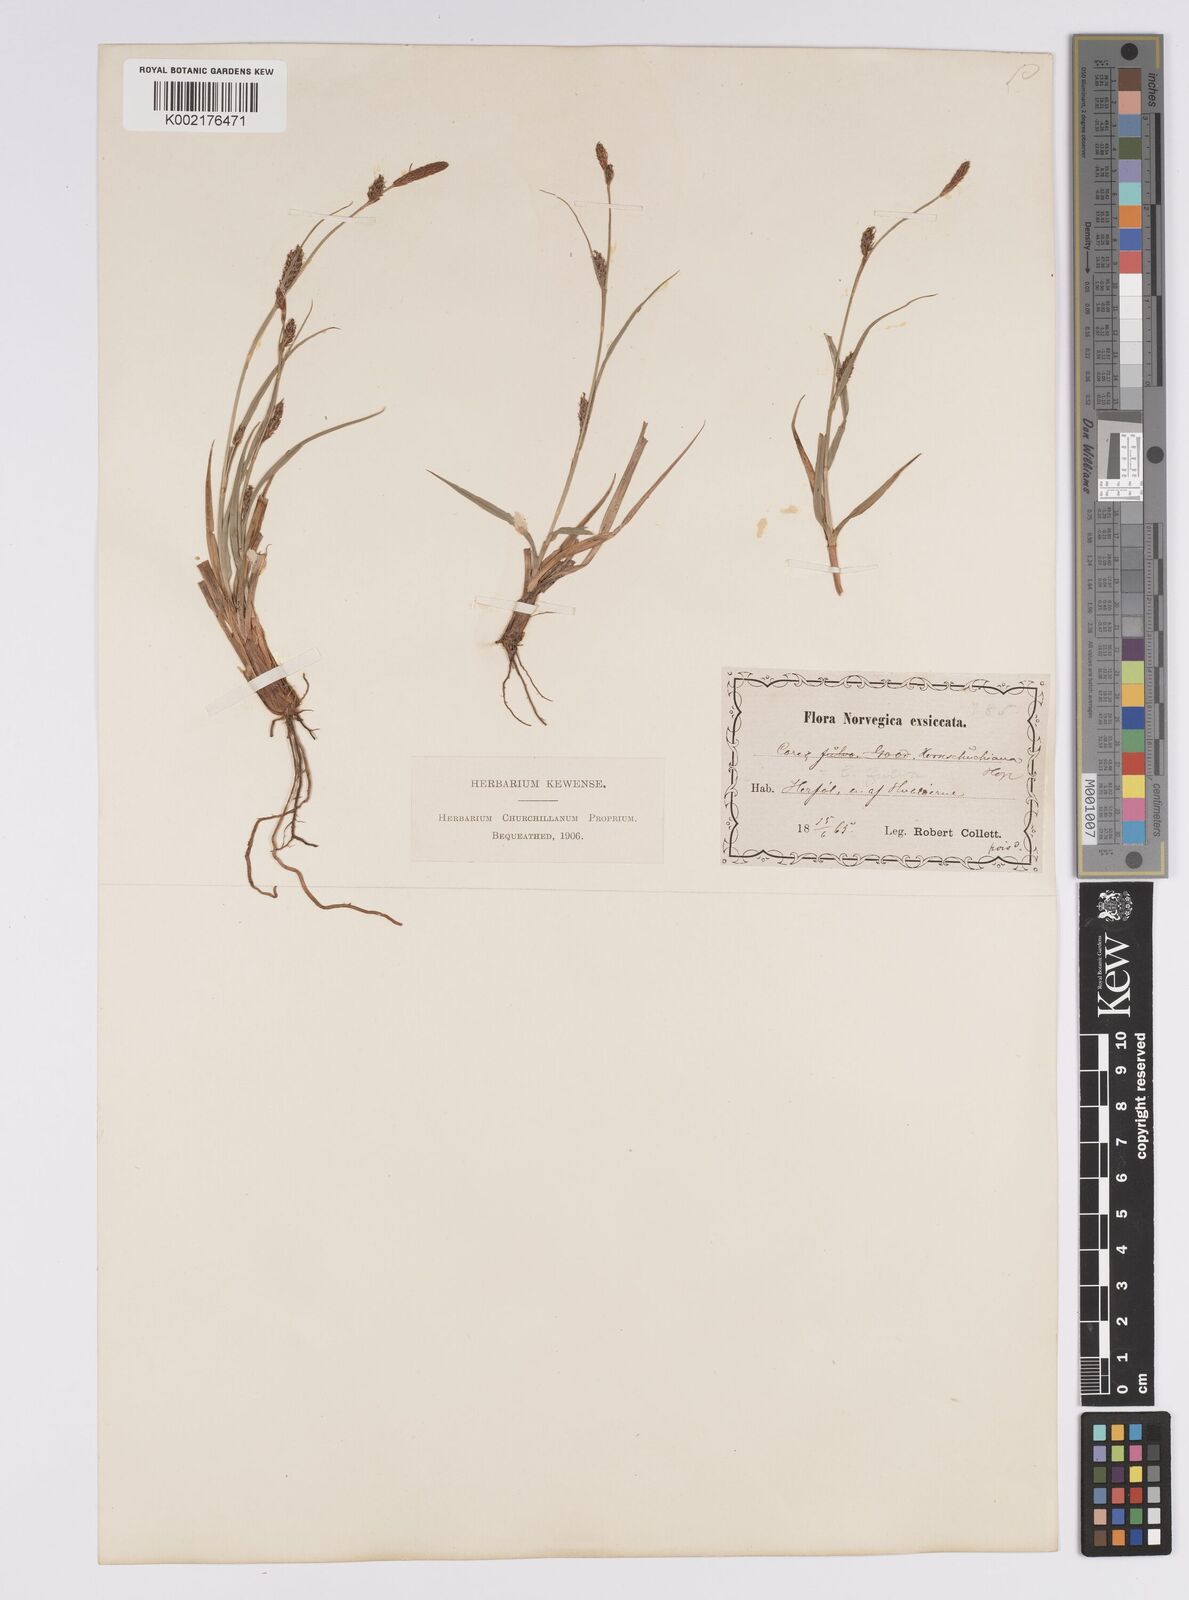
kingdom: Plantae
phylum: Tracheophyta
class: Liliopsida
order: Poales
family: Cyperaceae
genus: Carex
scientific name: Carex distans
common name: Distant sedge
